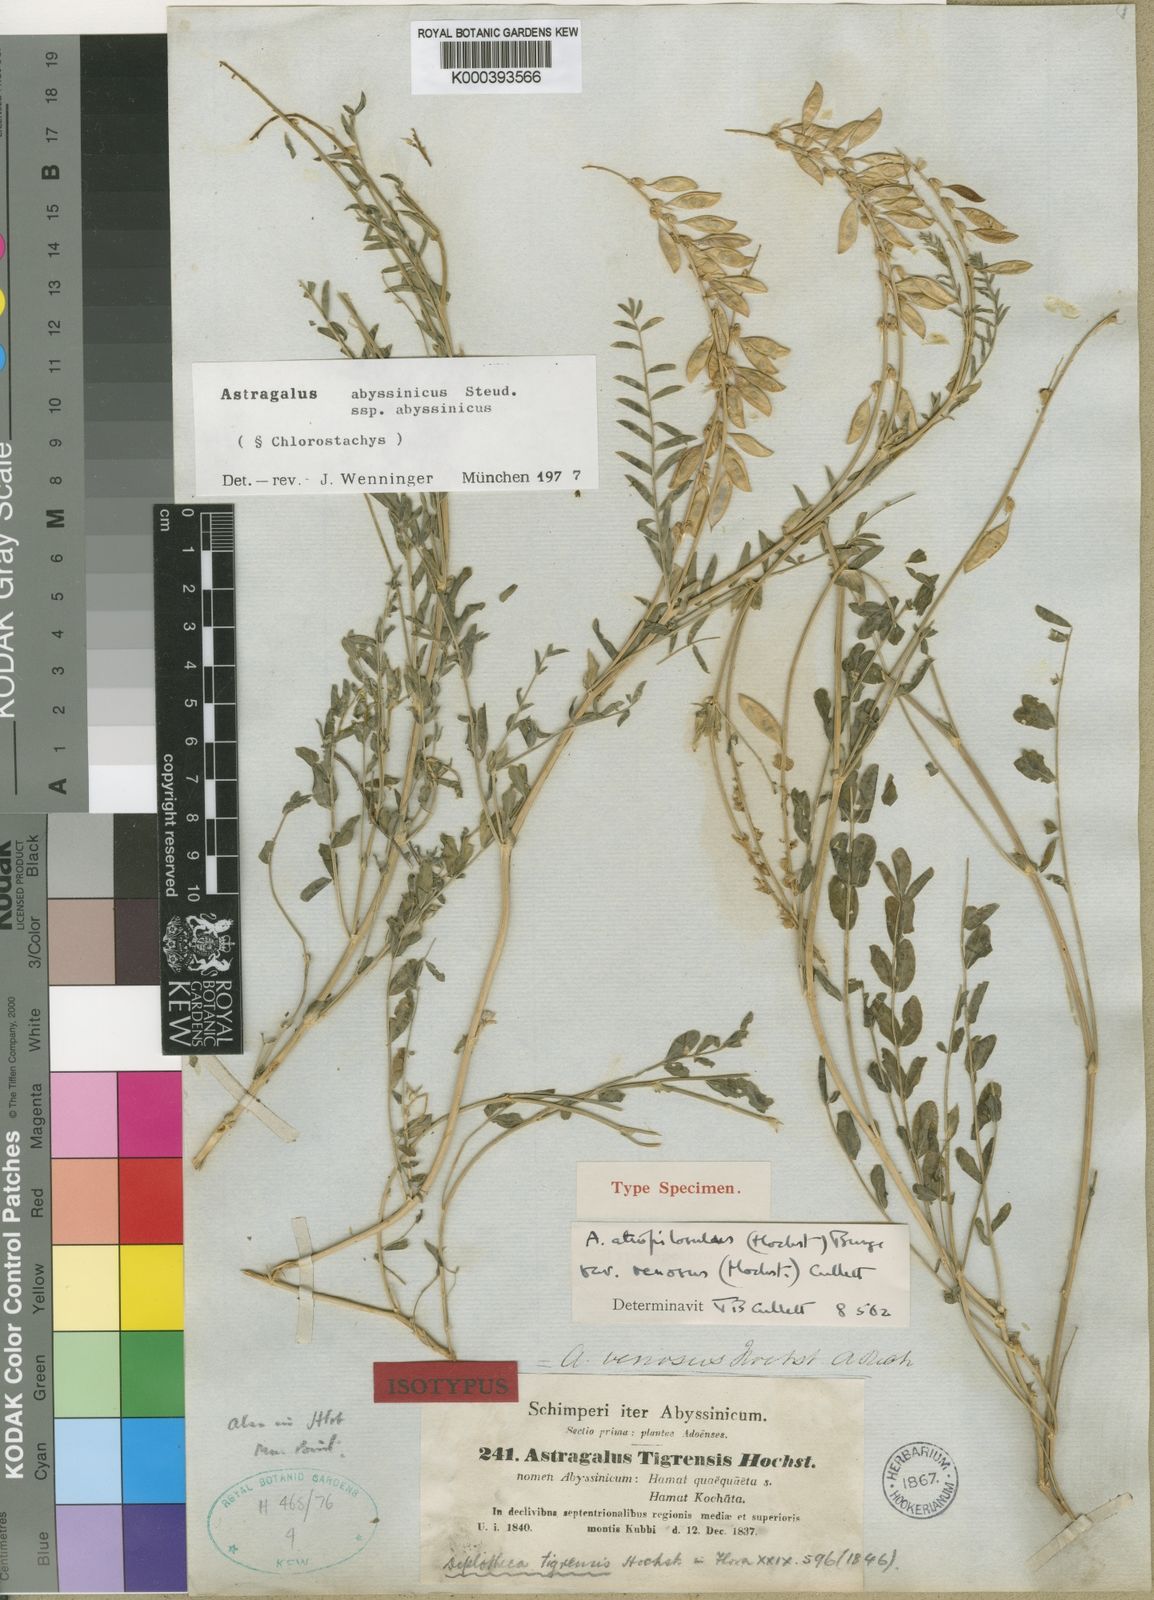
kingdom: Plantae
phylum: Tracheophyta
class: Magnoliopsida
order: Fabales
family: Fabaceae
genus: Astragalus
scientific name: Astragalus atropilosulus
